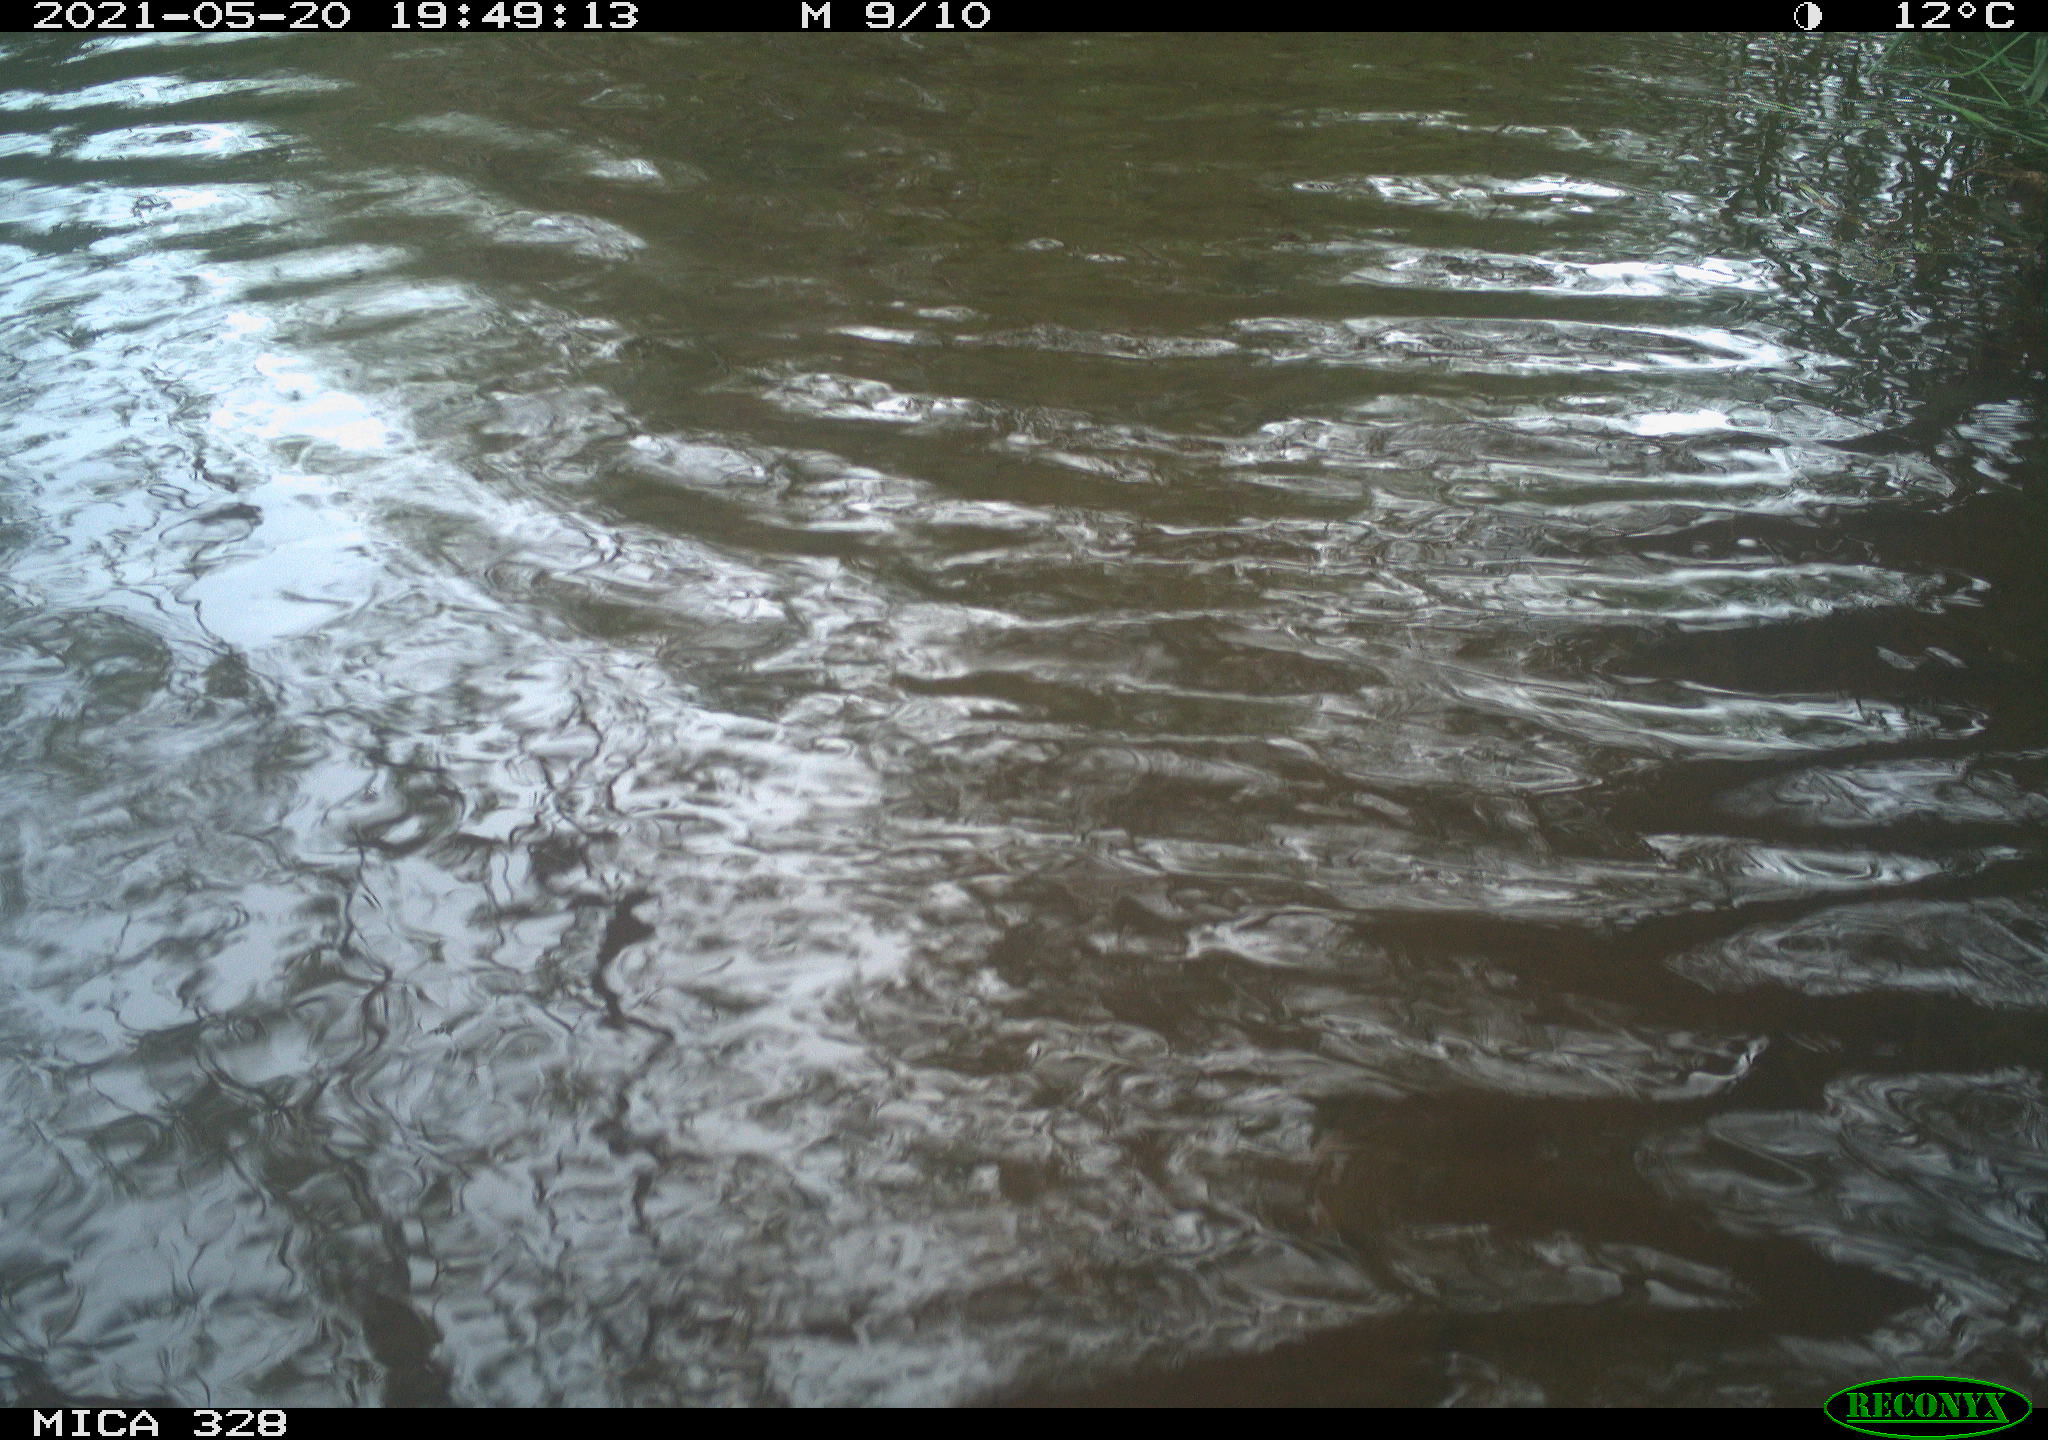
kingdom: Animalia
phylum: Chordata
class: Mammalia
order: Rodentia
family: Cricetidae
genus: Ondatra
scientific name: Ondatra zibethicus
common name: Muskrat
